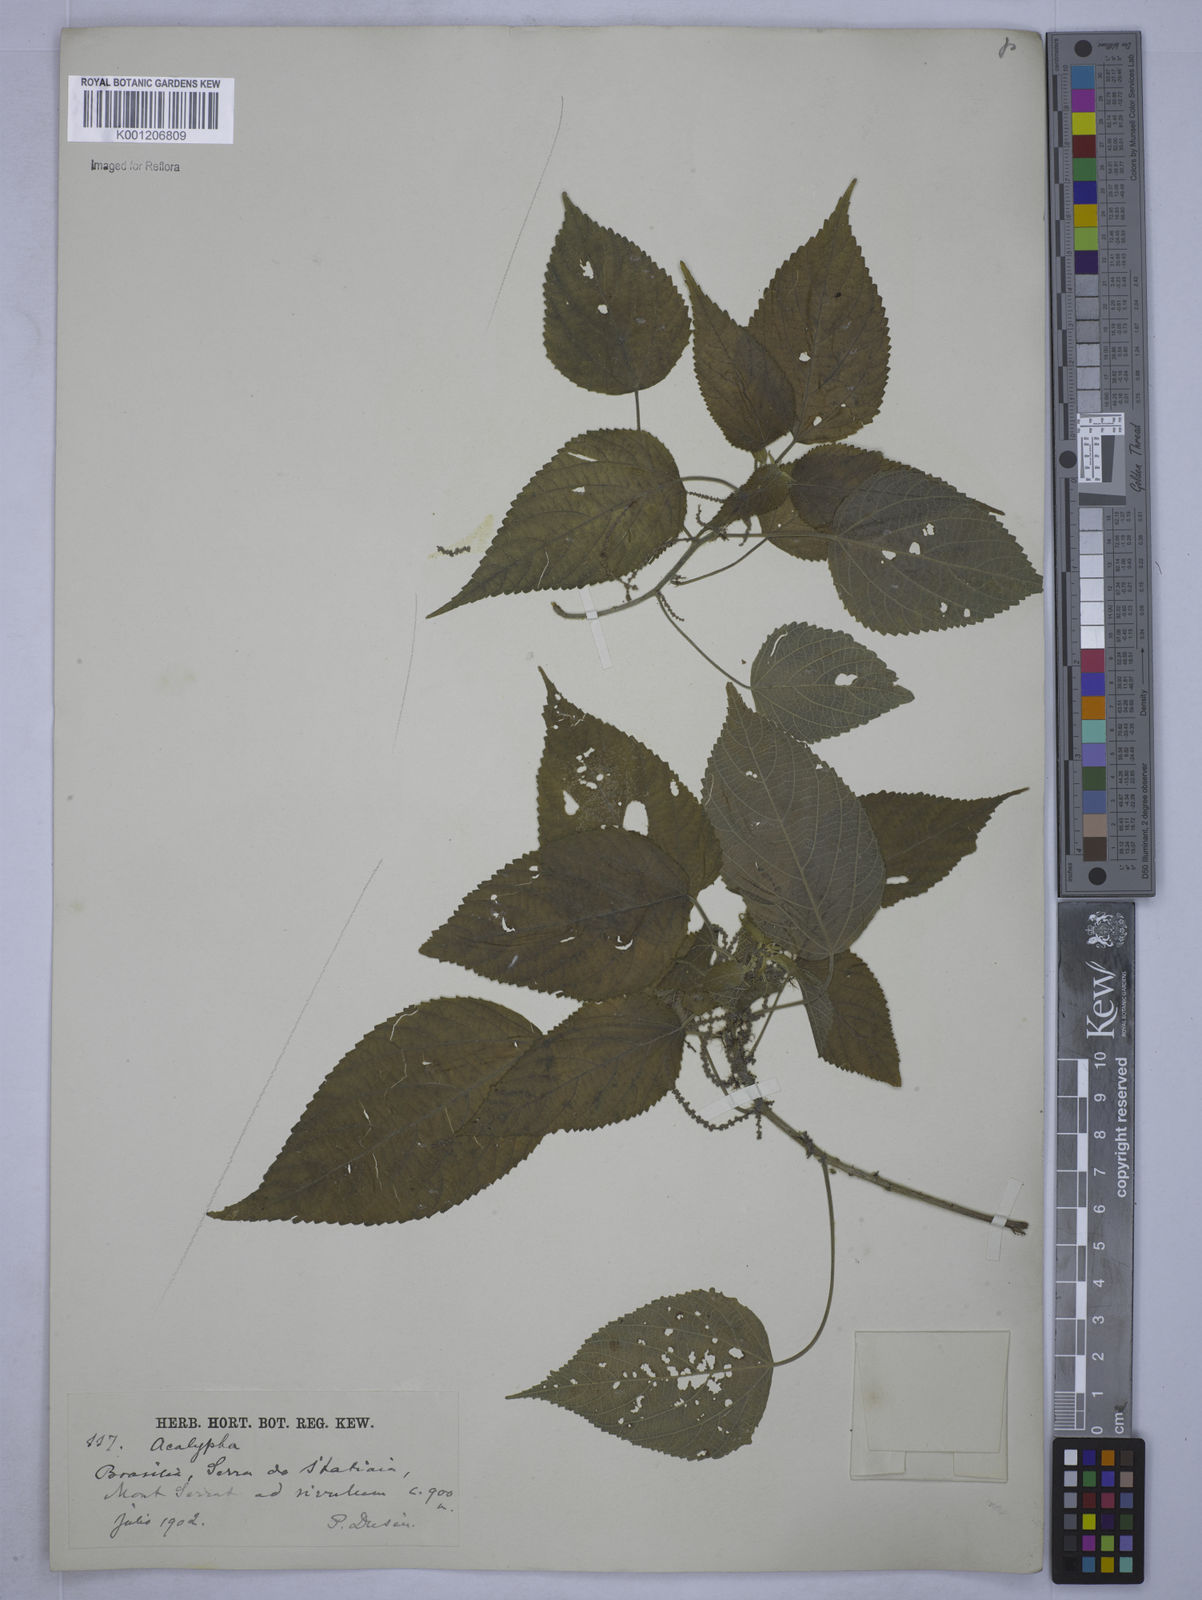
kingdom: Plantae
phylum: Tracheophyta
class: Magnoliopsida
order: Malpighiales
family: Euphorbiaceae
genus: Acalypha
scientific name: Acalypha
